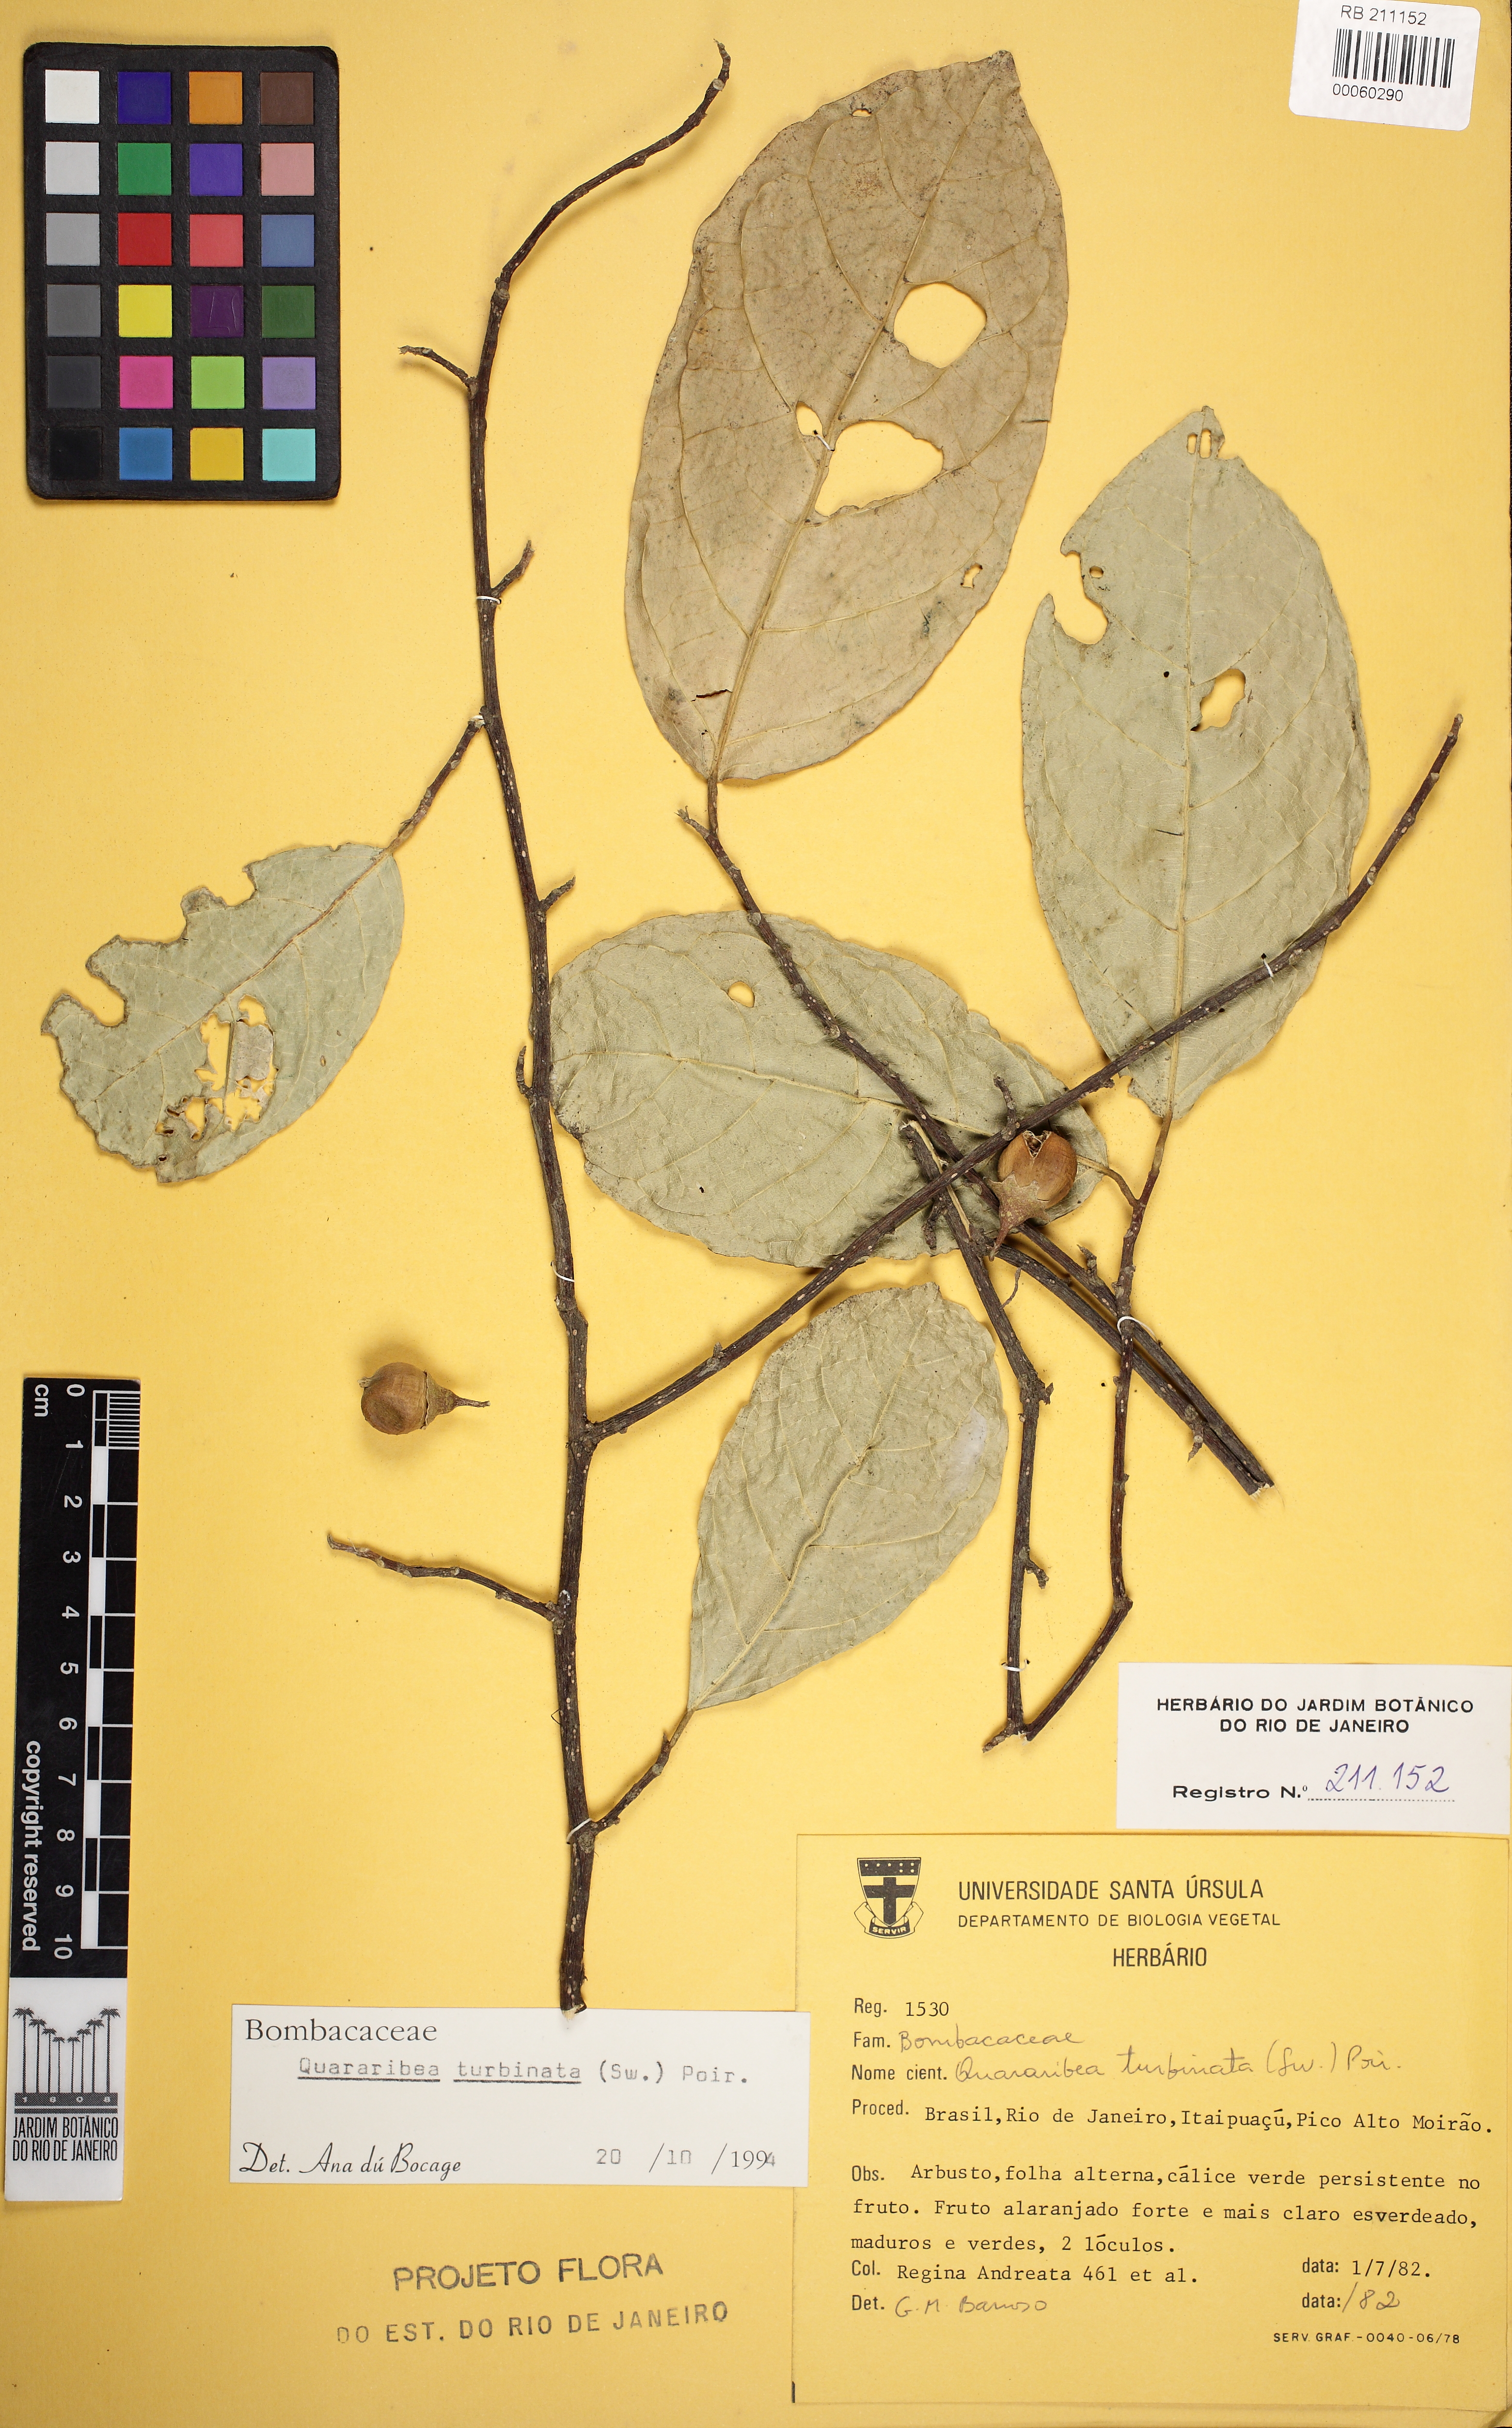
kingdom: Plantae
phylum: Tracheophyta
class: Magnoliopsida
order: Malvales
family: Malvaceae
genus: Quararibea
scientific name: Quararibea turbinata
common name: Swizzlestick-tree
